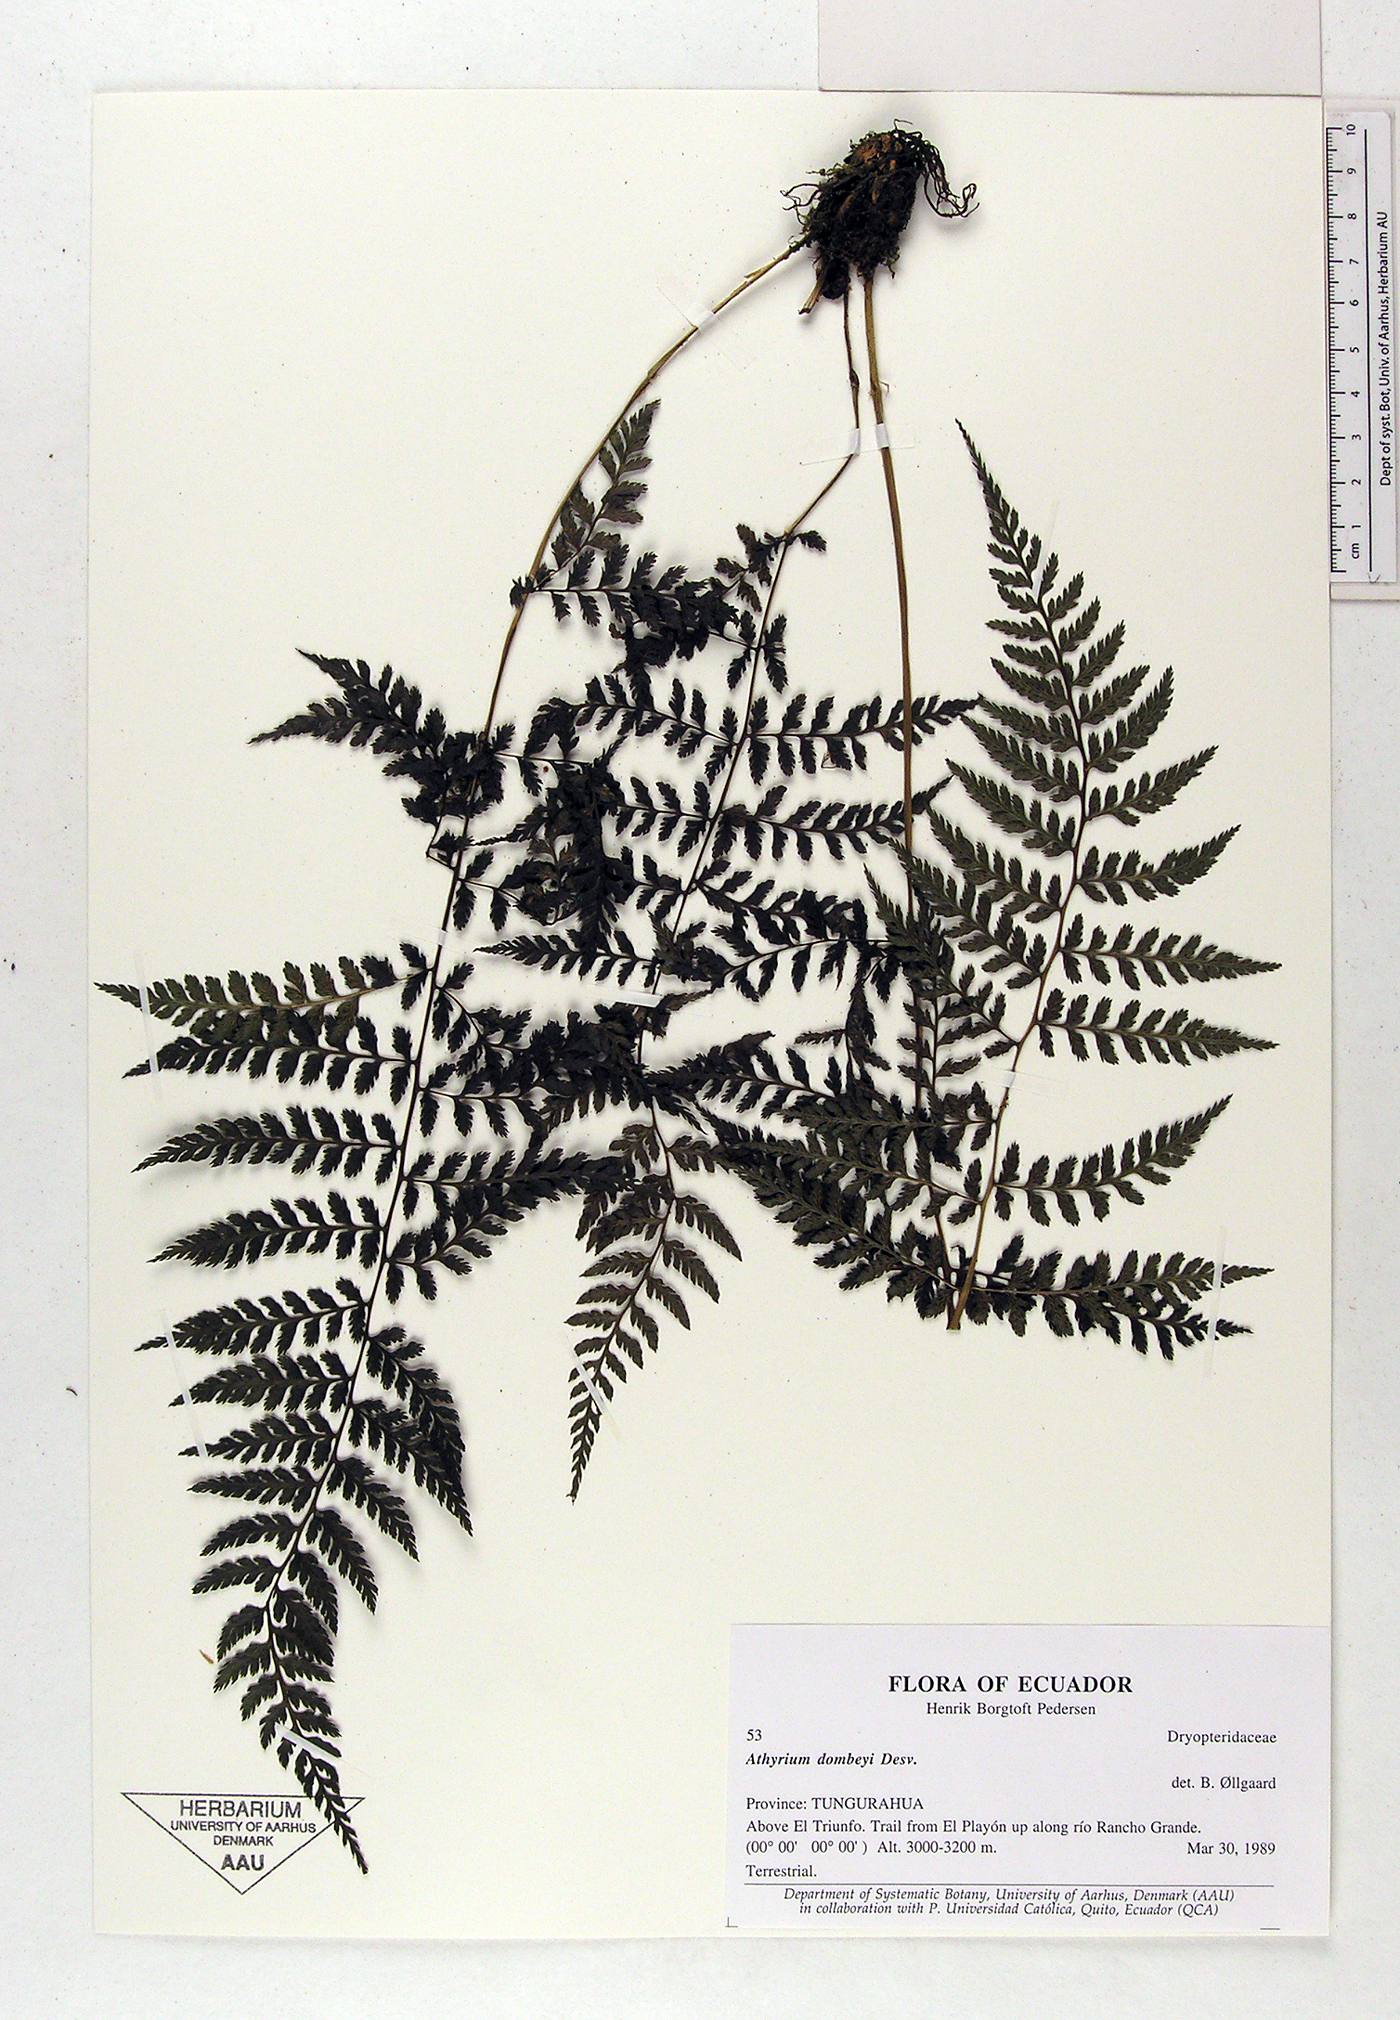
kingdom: Plantae
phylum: Tracheophyta
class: Polypodiopsida
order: Polypodiales
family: Athyriaceae
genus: Athyrium
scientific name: Athyrium dombeyi
